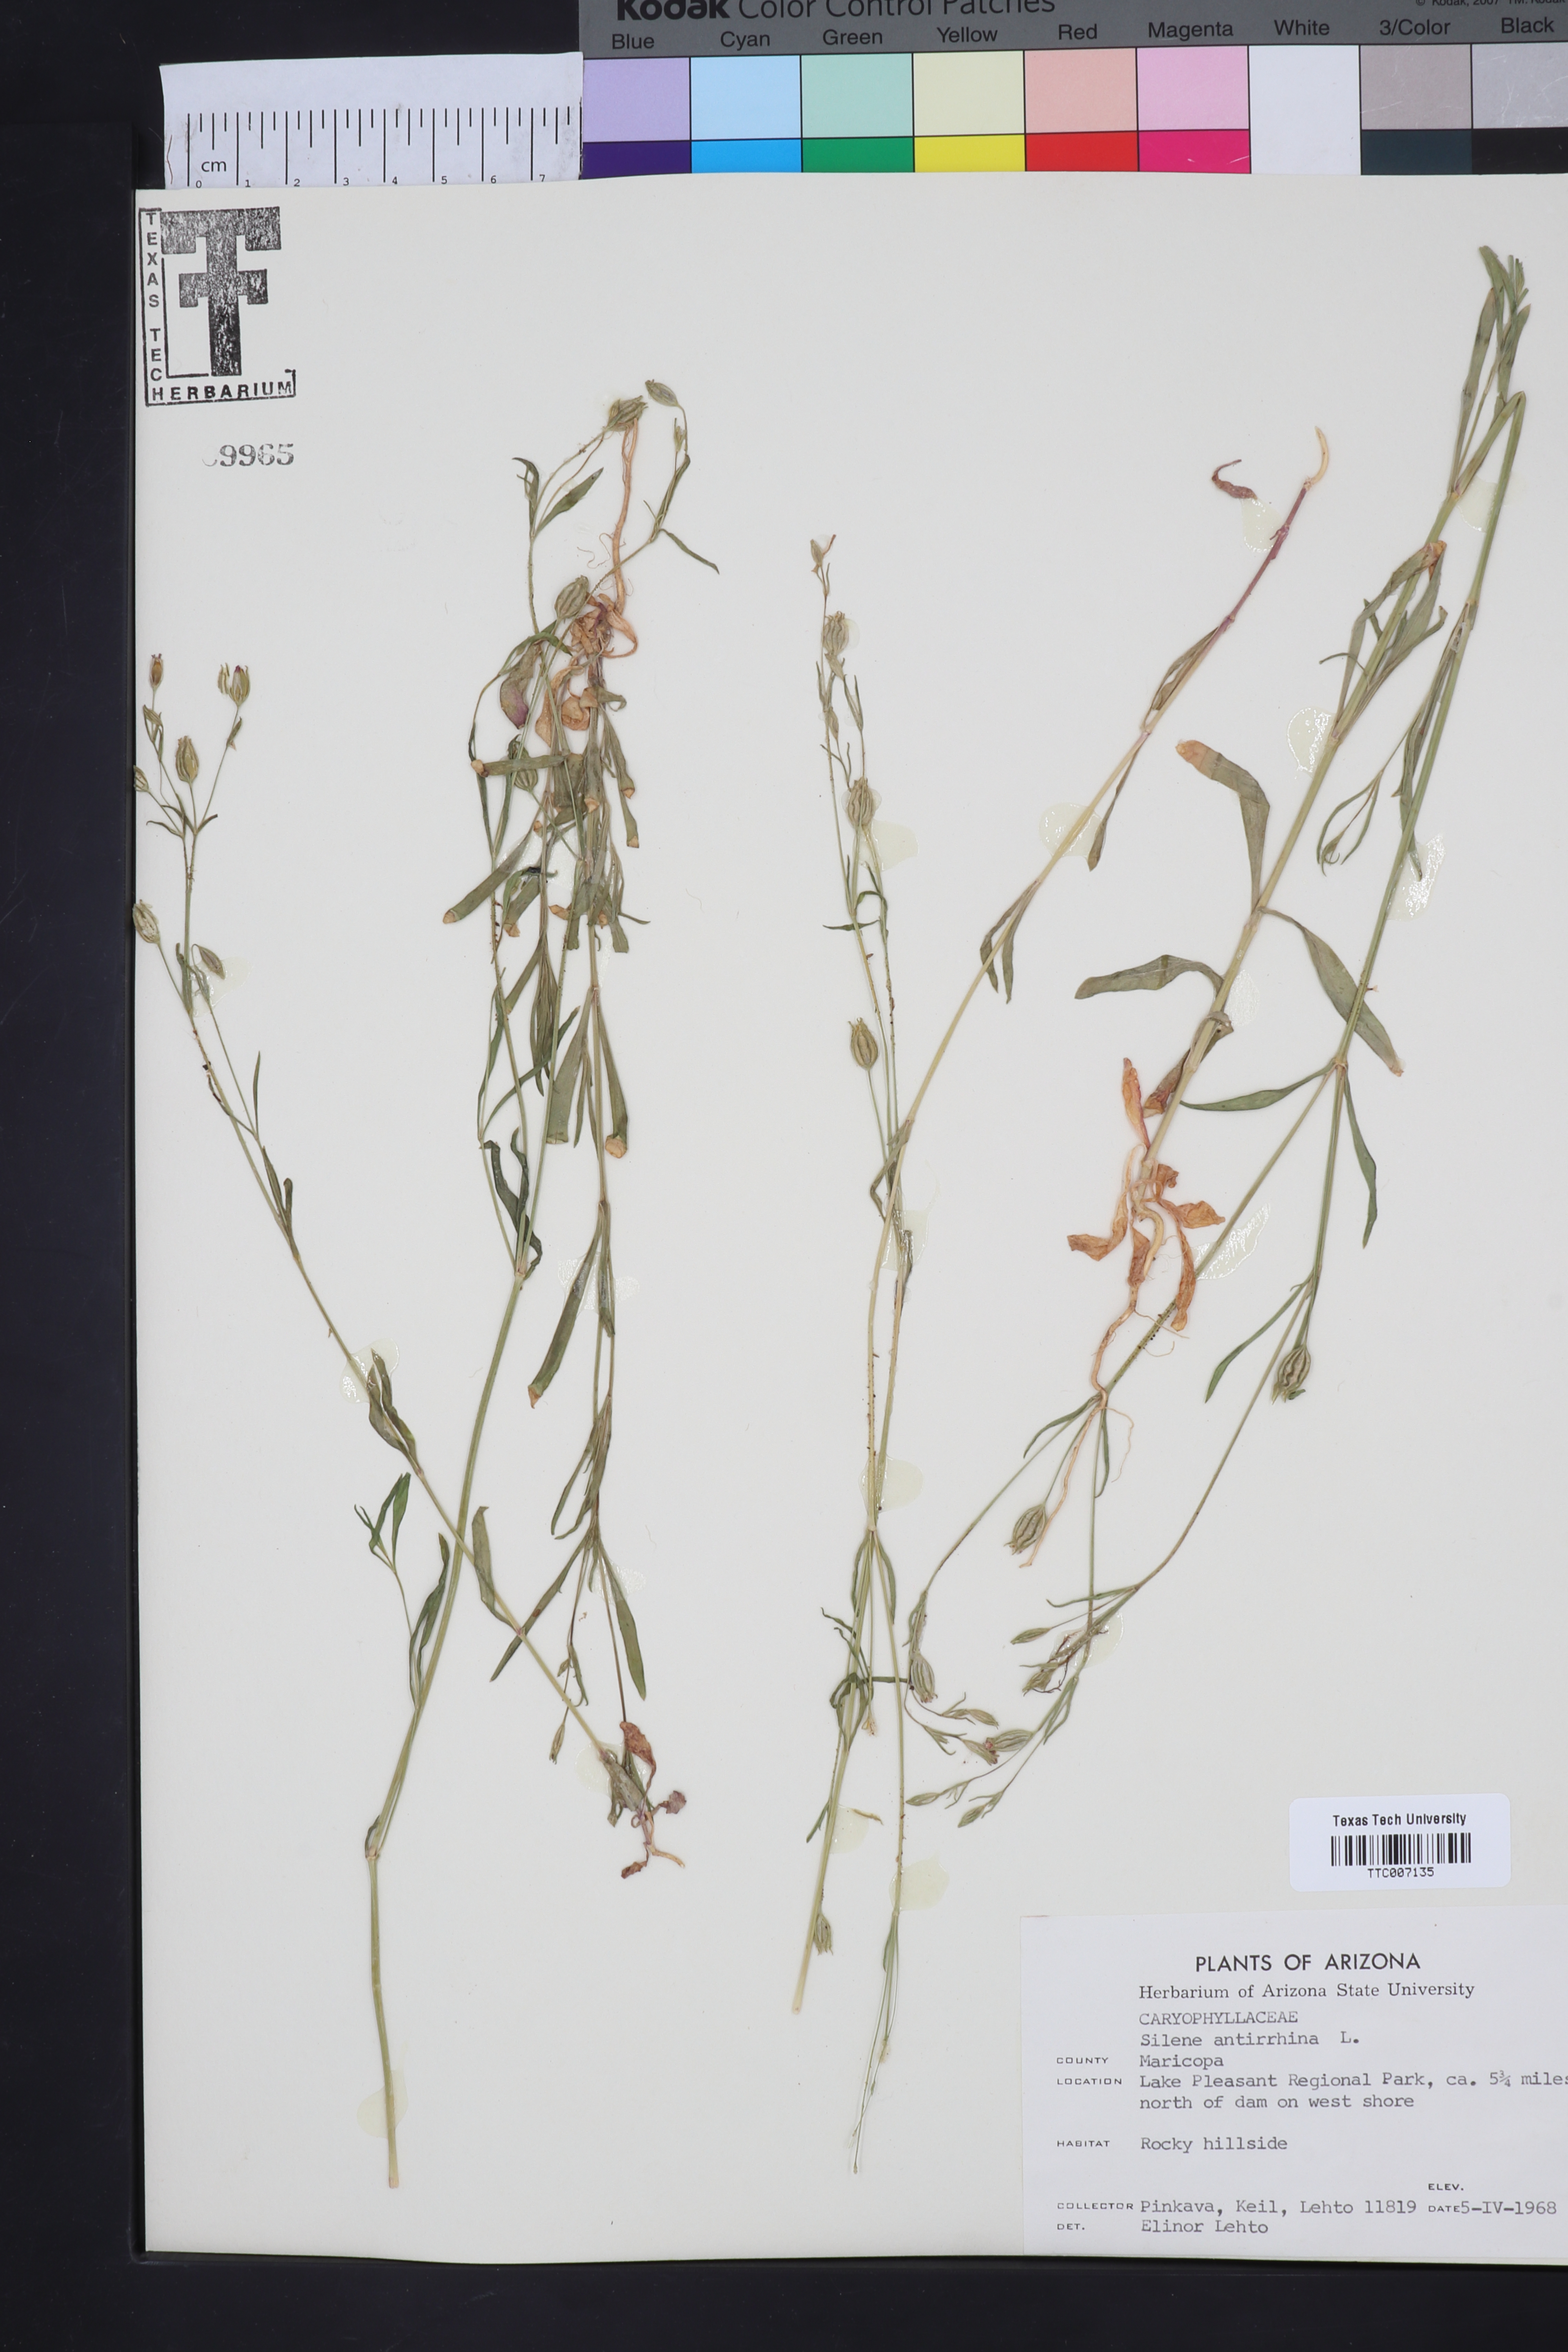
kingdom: Plantae
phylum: Tracheophyta
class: Magnoliopsida
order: Caryophyllales
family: Caryophyllaceae
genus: Silene
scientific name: Silene antirrhina
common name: Sleepy catchfly
